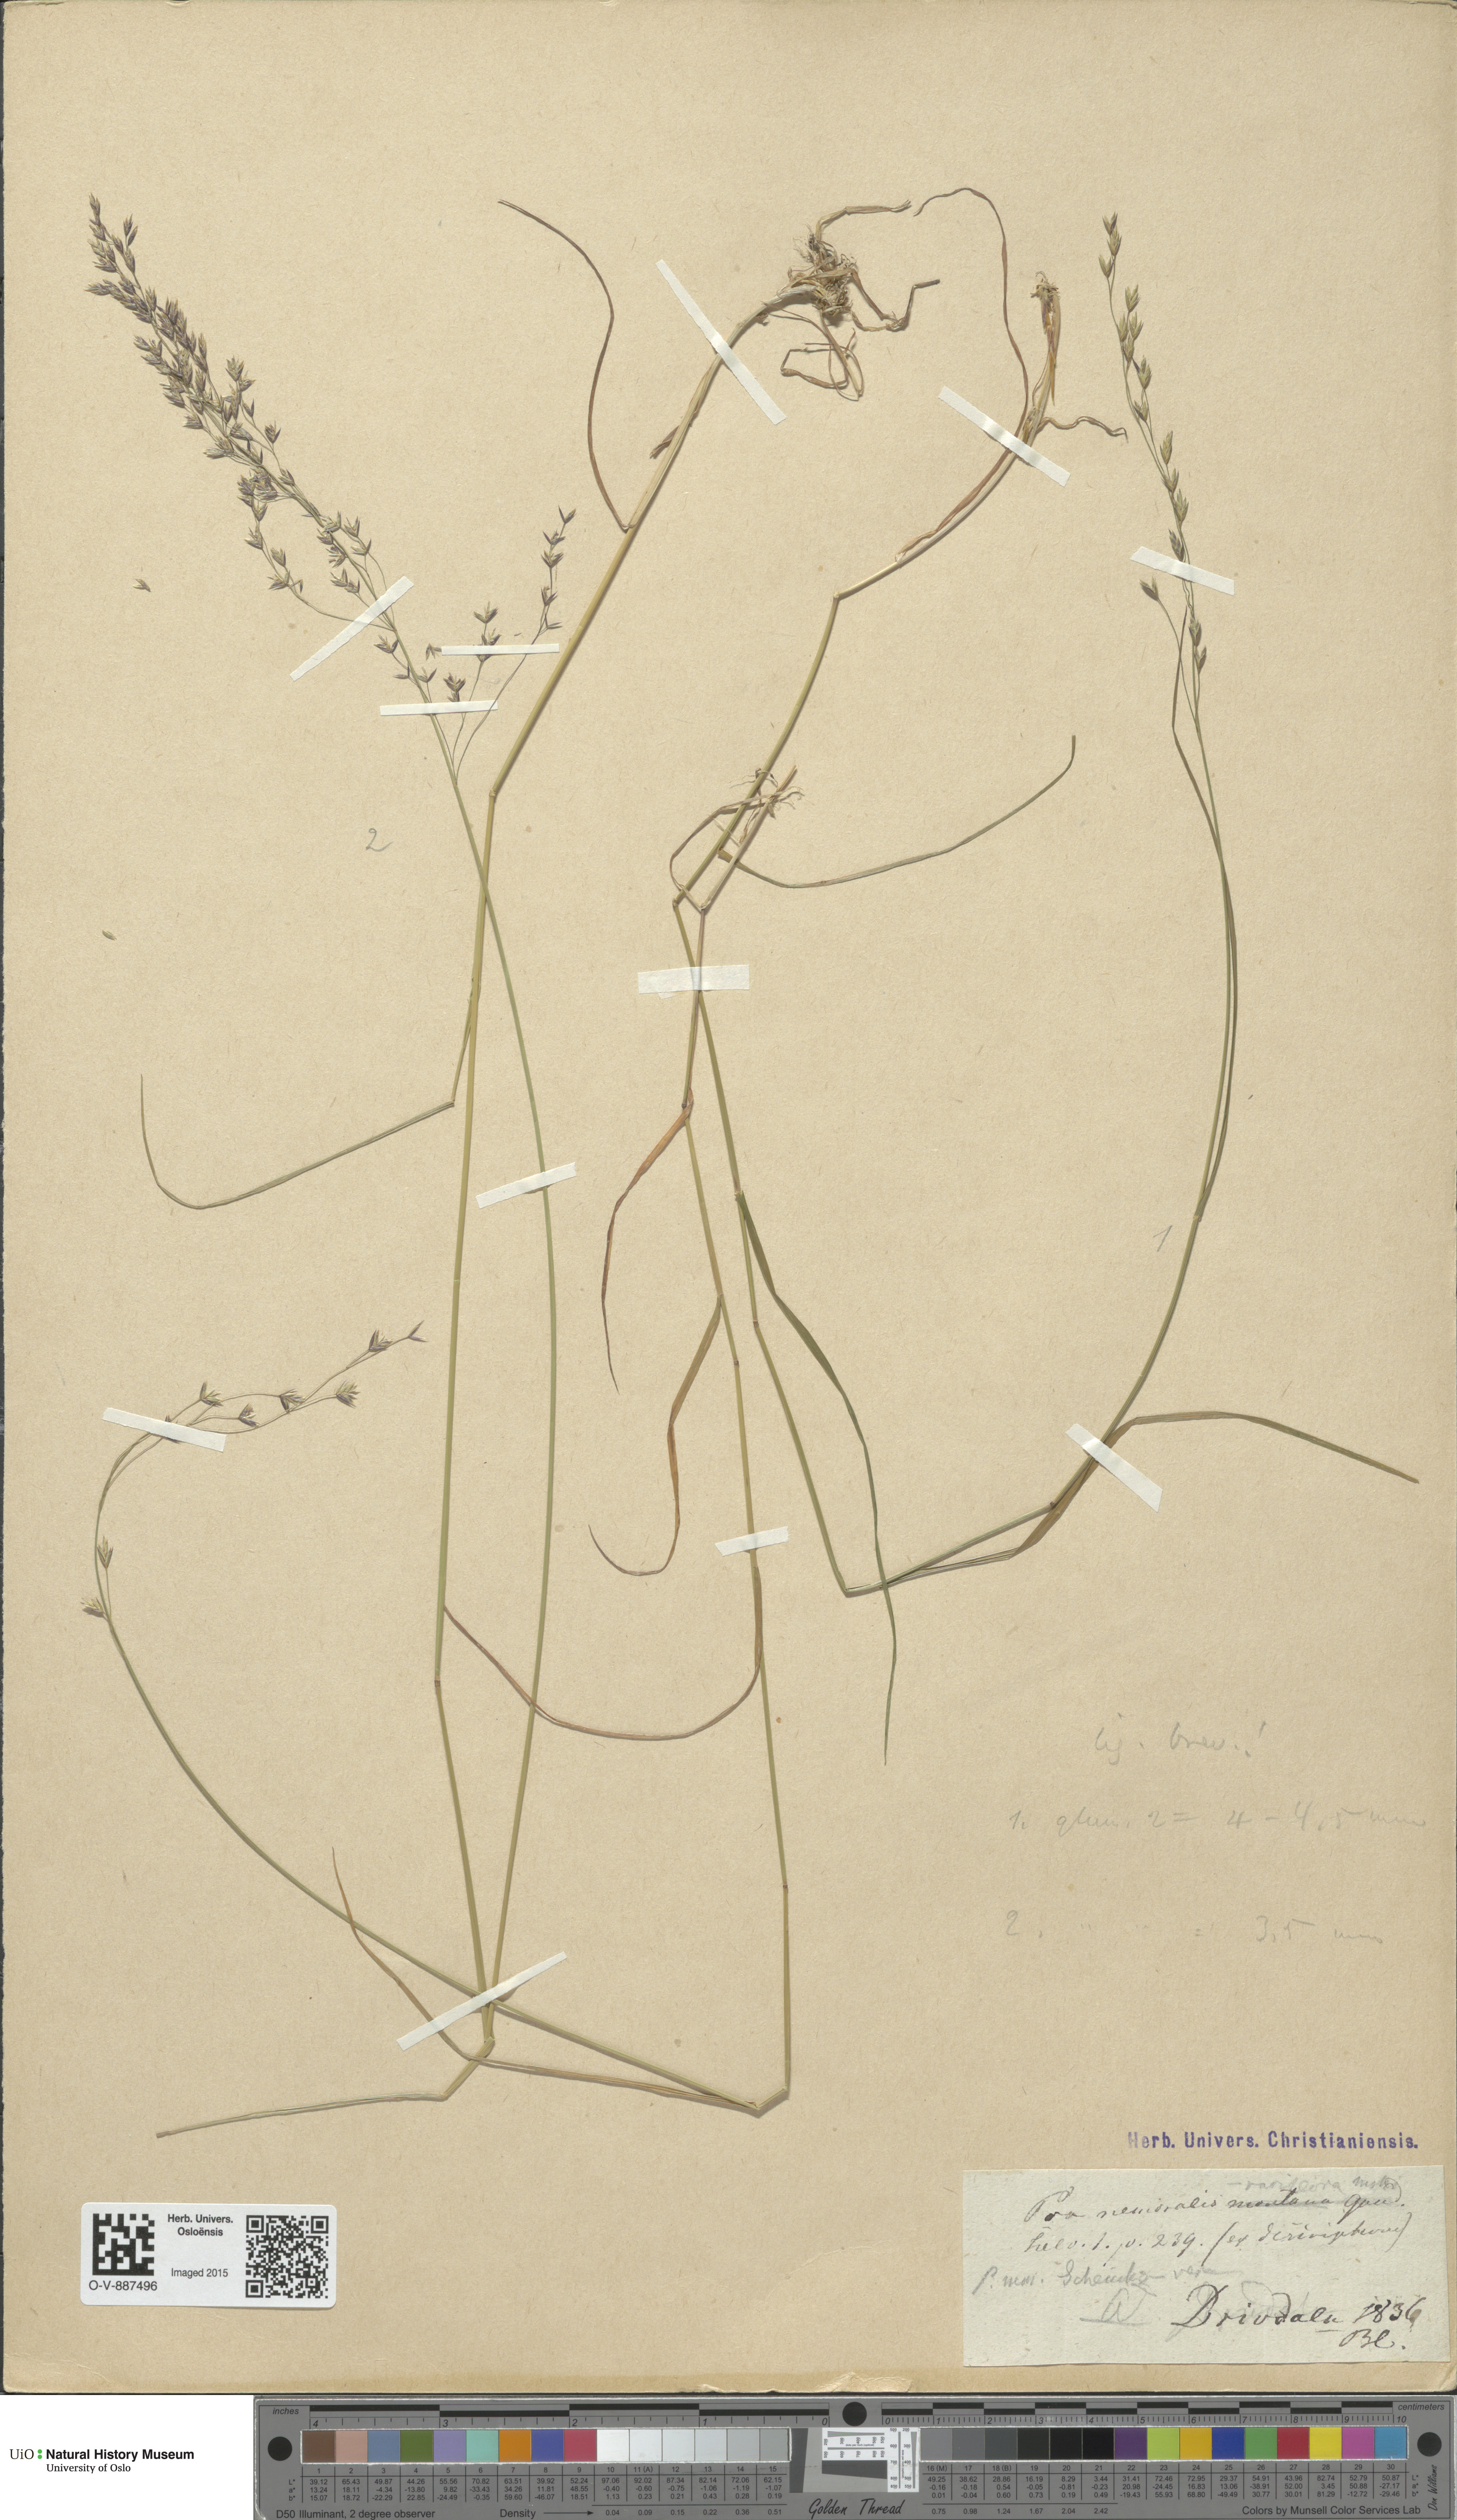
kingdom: Plantae
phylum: Tracheophyta
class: Liliopsida
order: Poales
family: Poaceae
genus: Poa
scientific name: Poa nemoralis
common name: Wood bluegrass
